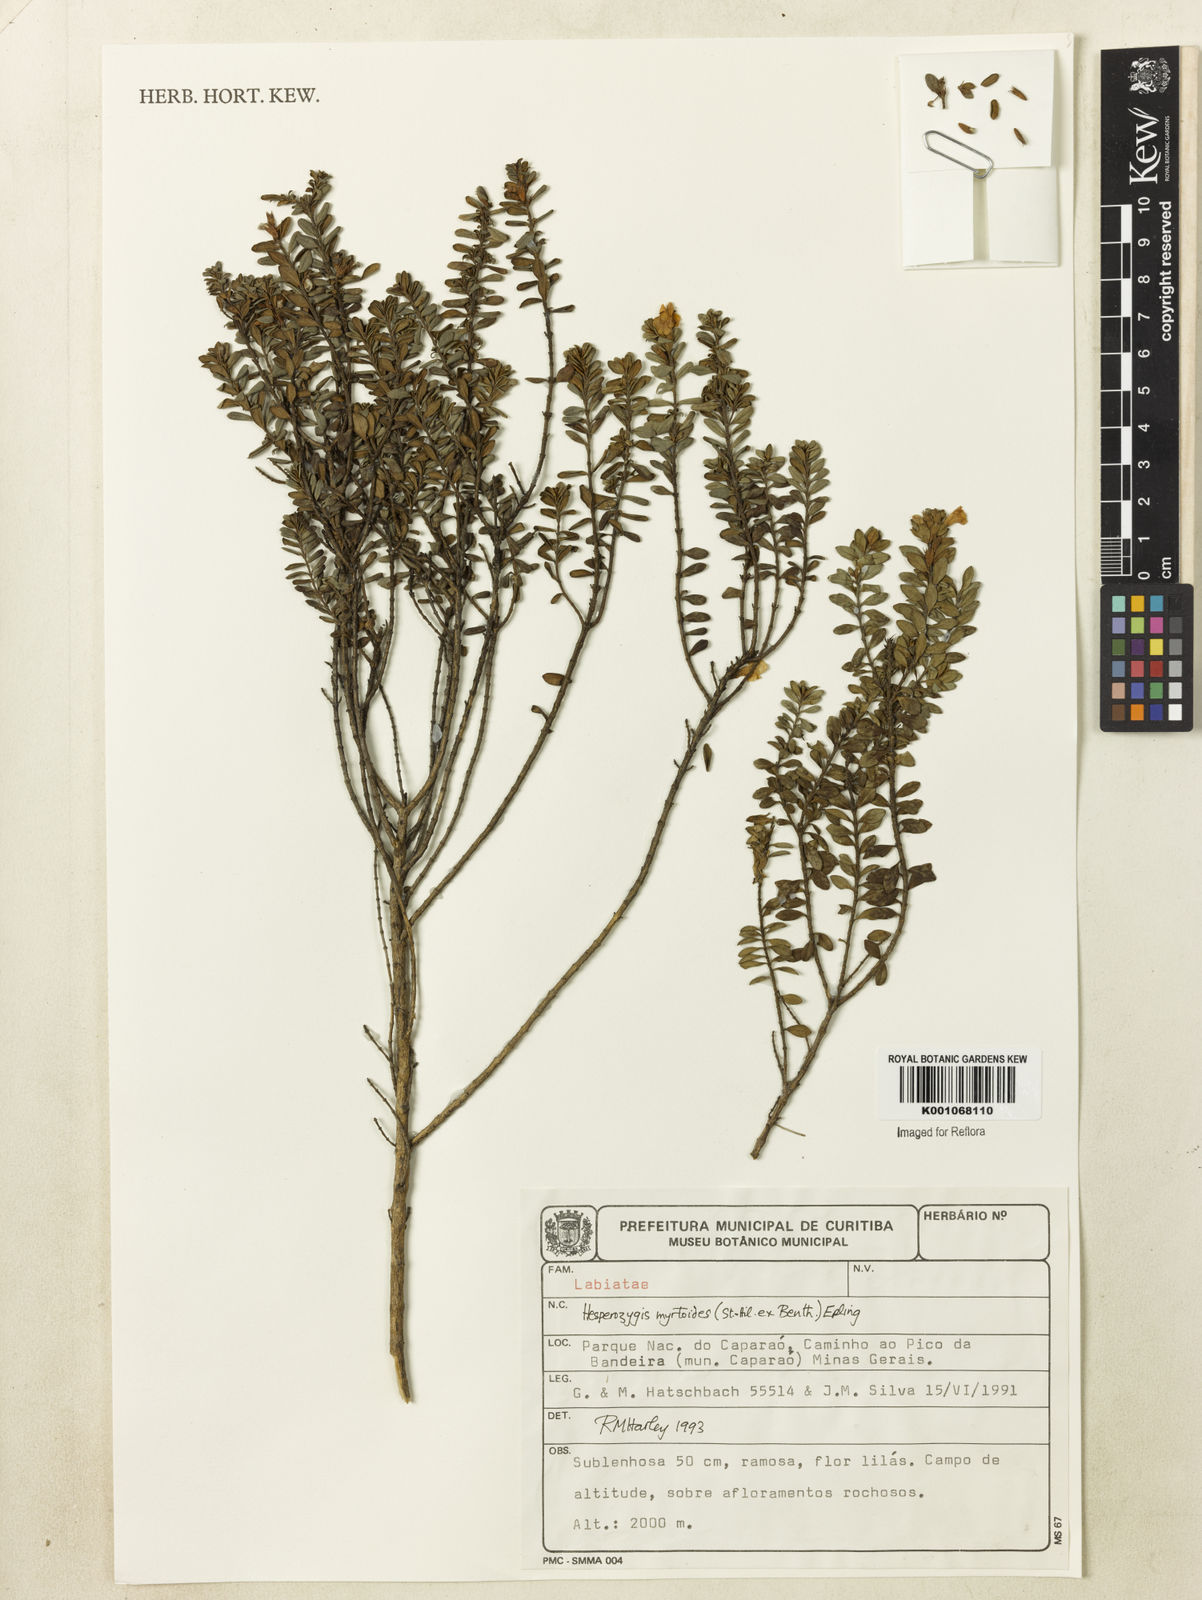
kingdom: Plantae
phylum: Tracheophyta
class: Magnoliopsida
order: Lamiales
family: Lamiaceae
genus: Hesperozygis
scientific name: Hesperozygis myrtoides
